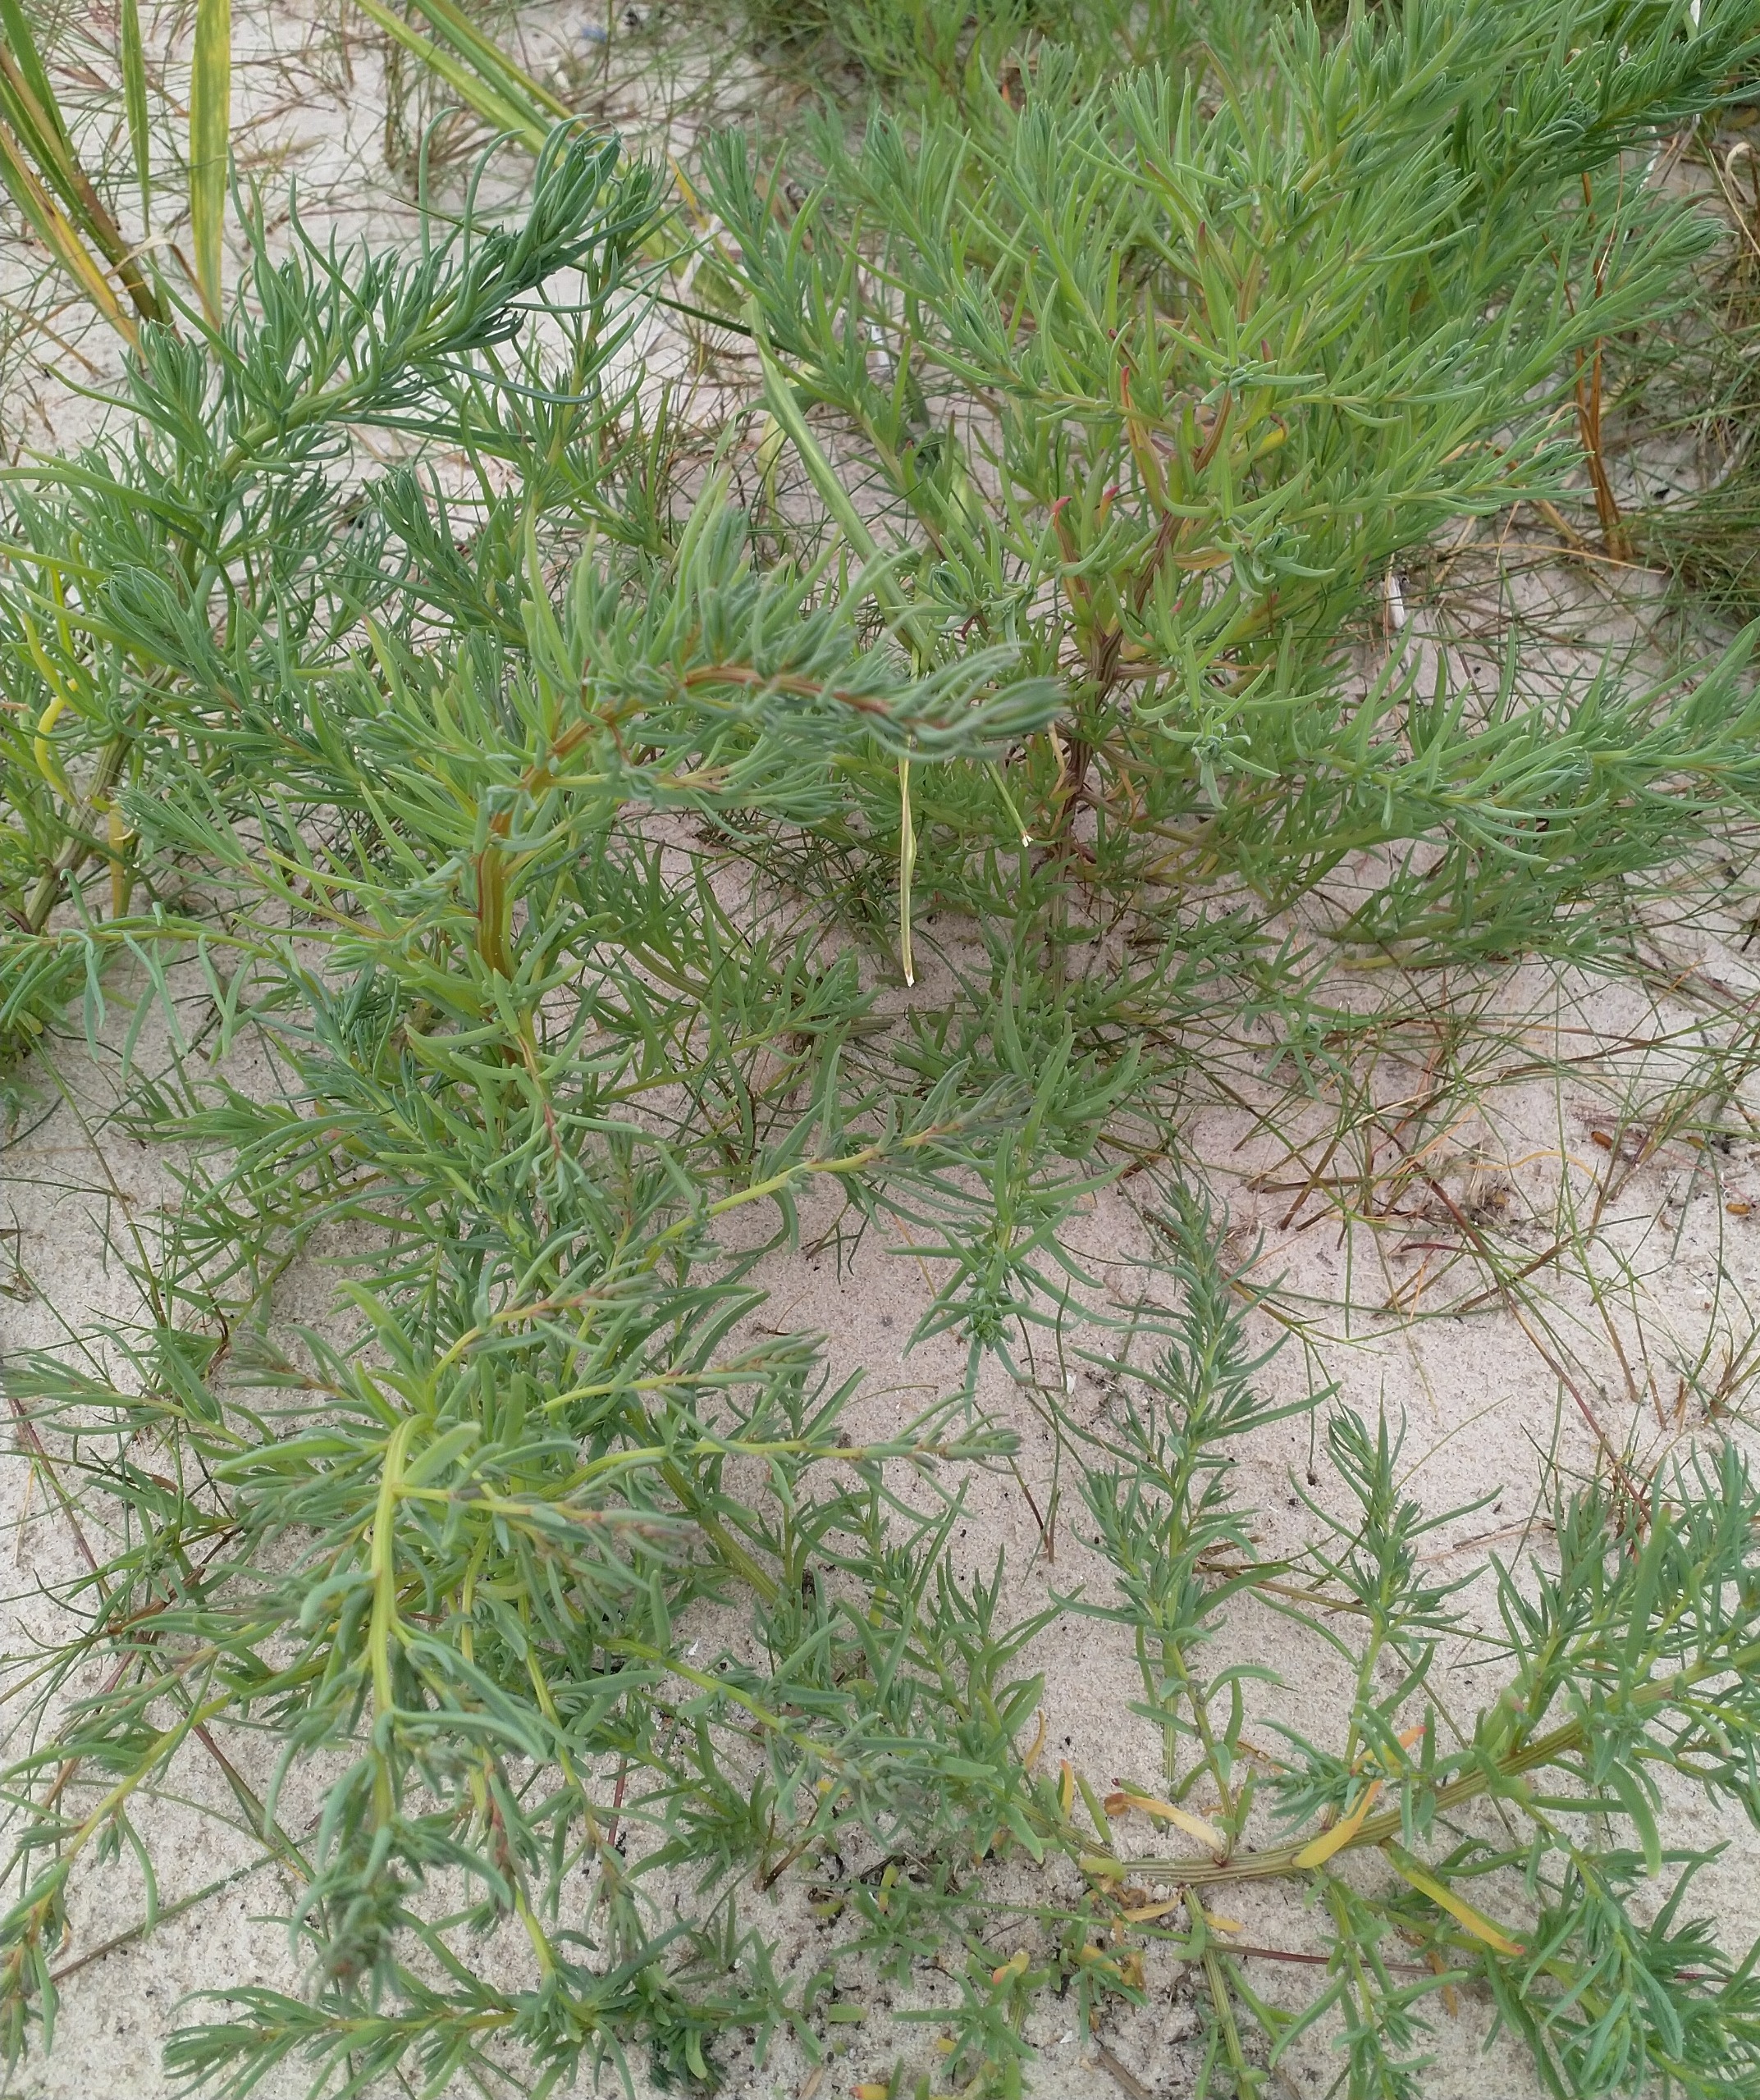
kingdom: Plantae
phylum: Tracheophyta
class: Magnoliopsida
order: Caryophyllales
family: Amaranthaceae
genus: Suaeda
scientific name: Suaeda maritima
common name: Strandgåsefod
